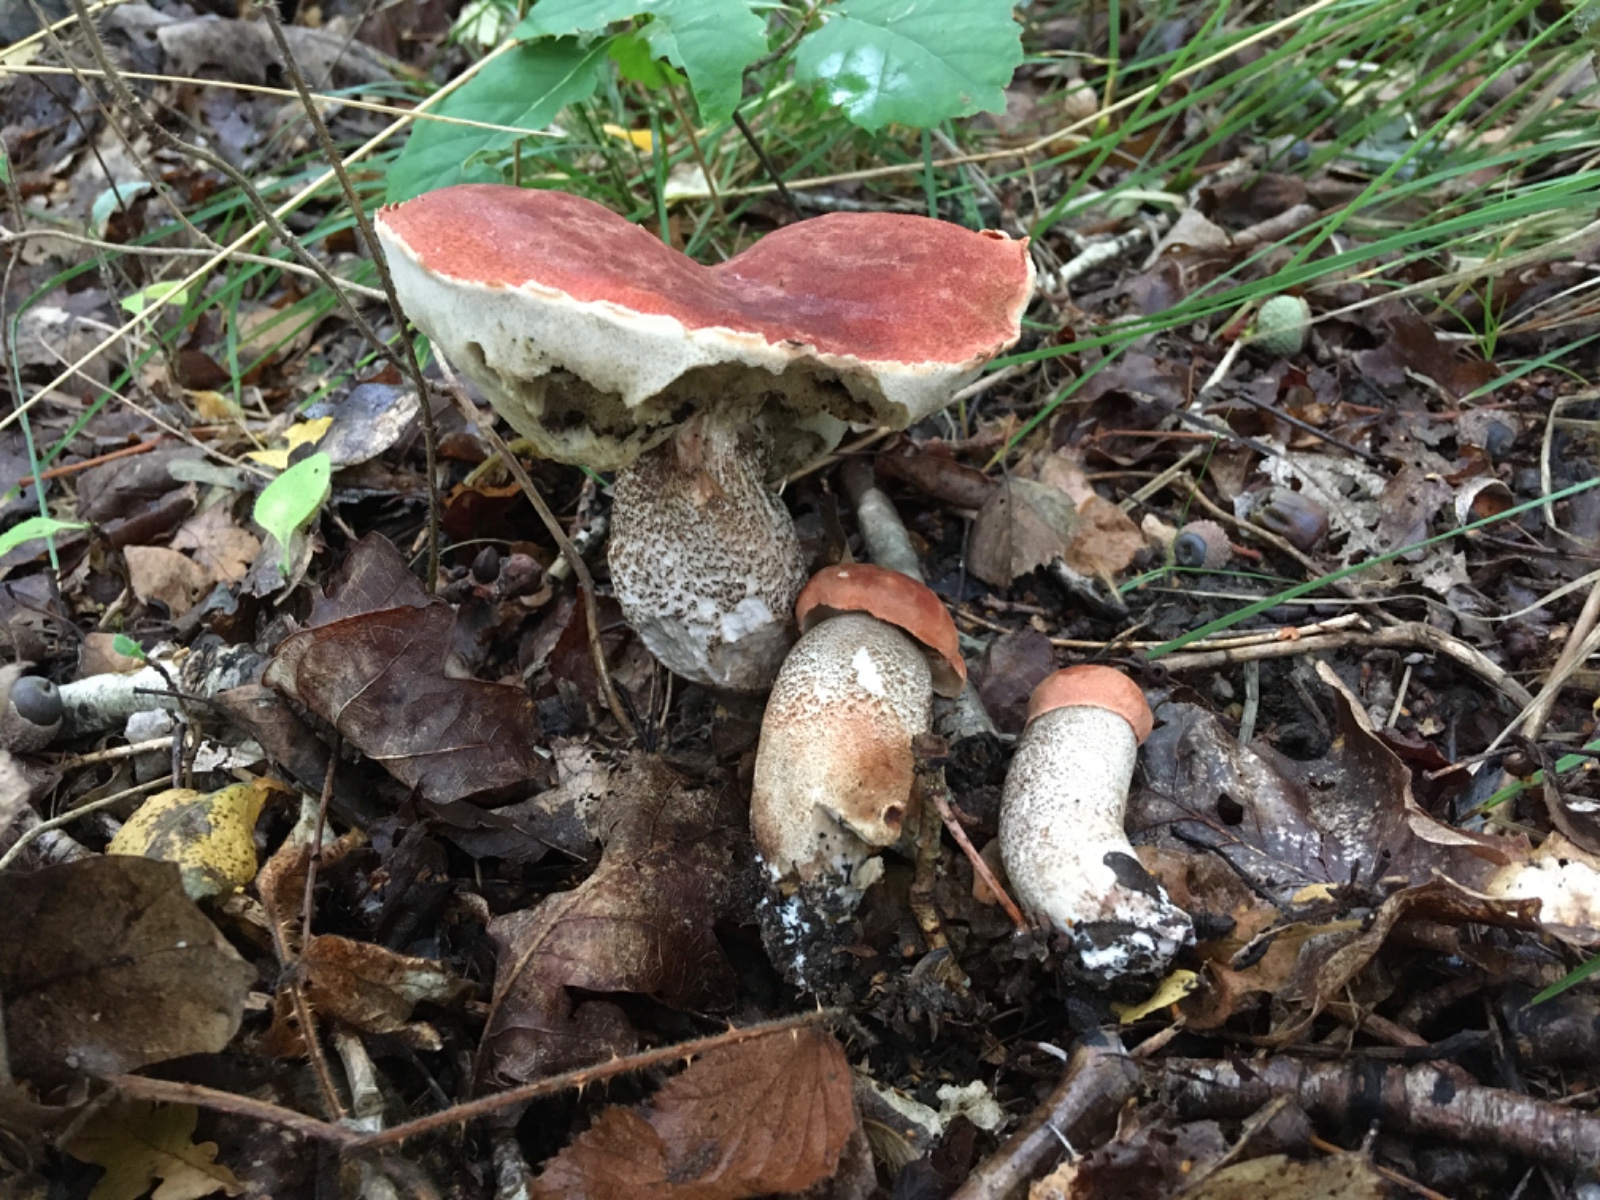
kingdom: Fungi
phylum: Basidiomycota
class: Agaricomycetes
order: Boletales
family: Boletaceae
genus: Leccinum
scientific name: Leccinum aurantiacum
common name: rustrød skælrørhat
